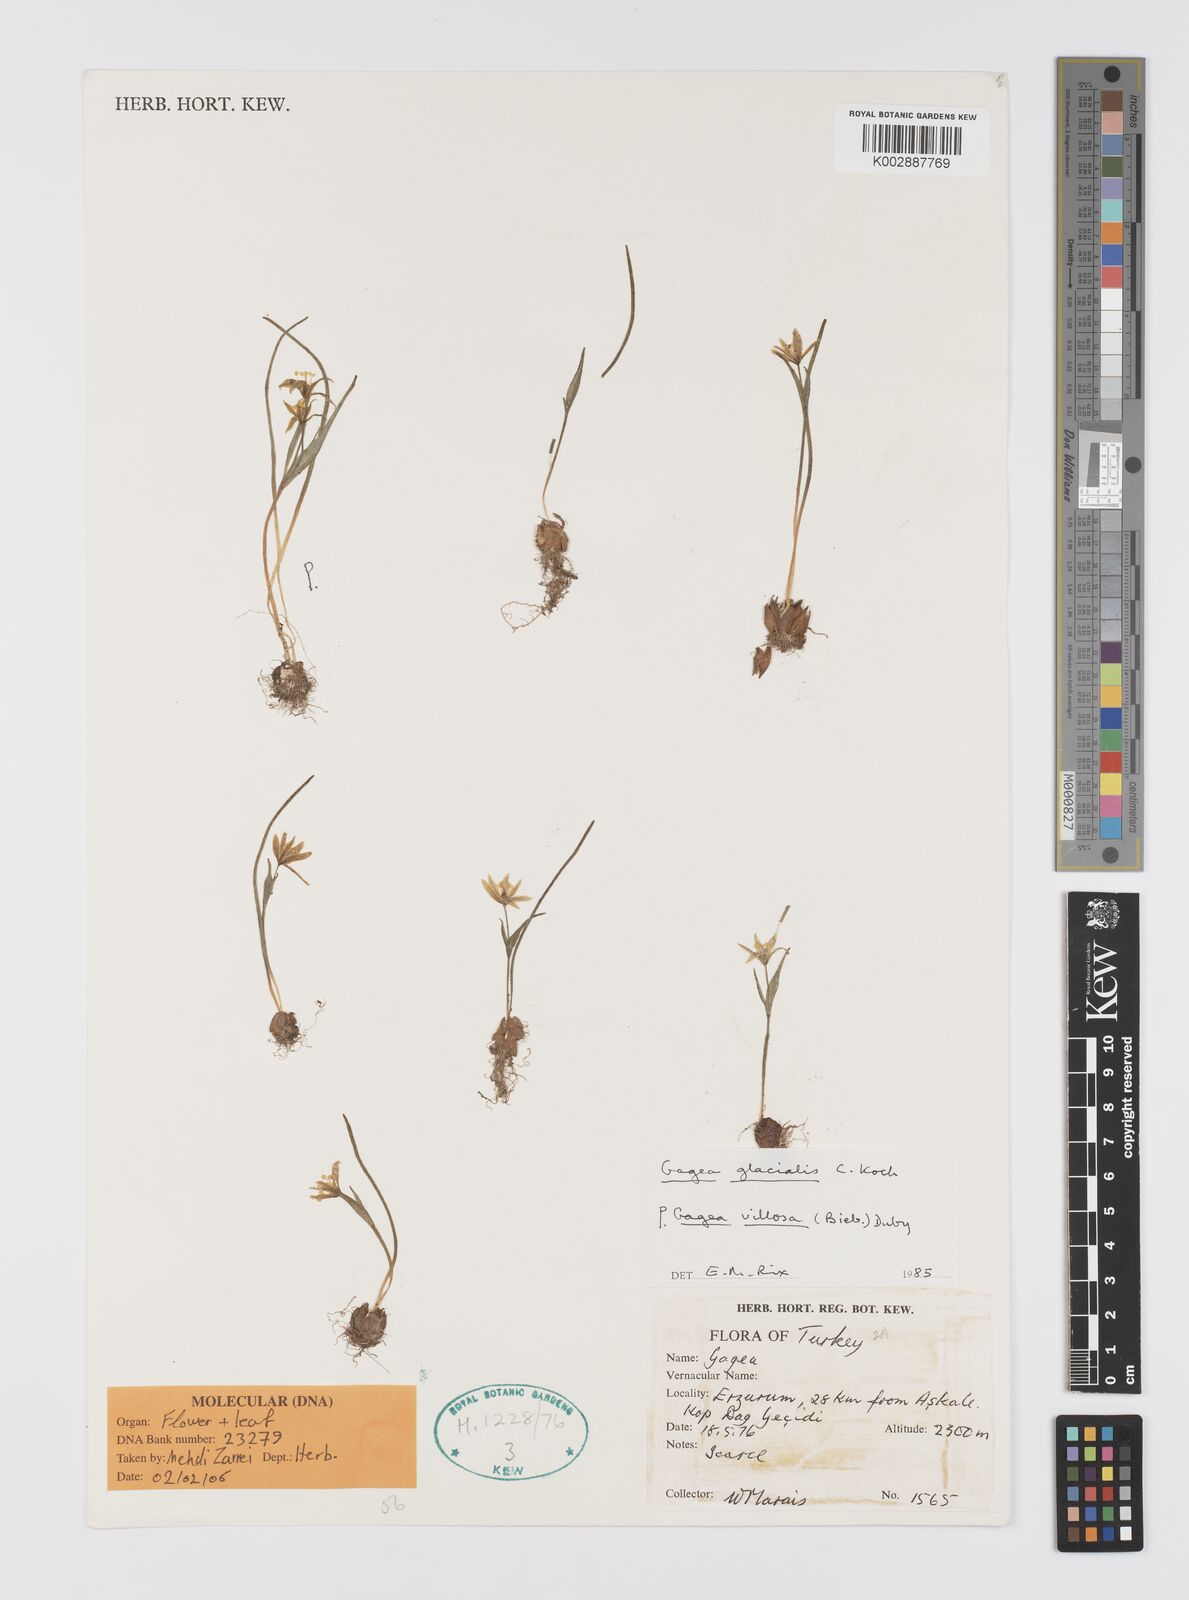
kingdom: Plantae
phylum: Tracheophyta
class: Liliopsida
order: Liliales
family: Liliaceae
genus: Gagea
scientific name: Gagea villosa
